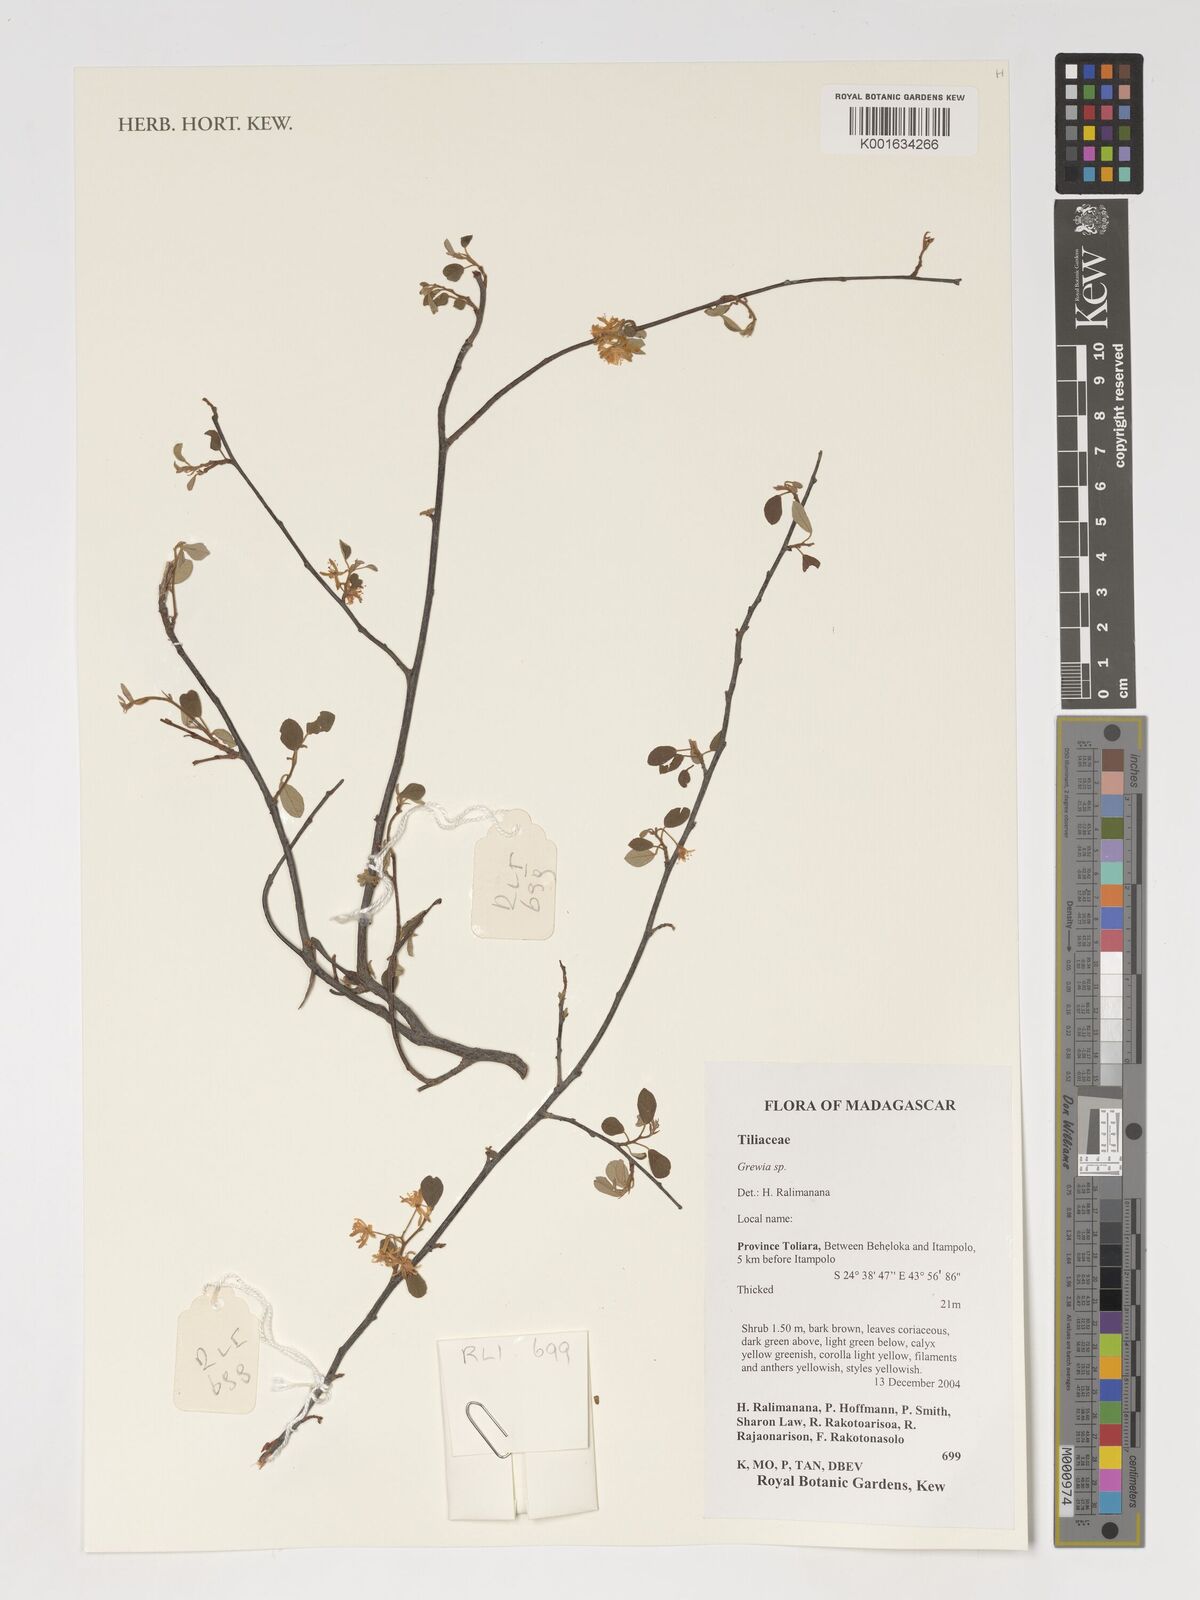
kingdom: Plantae
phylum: Tracheophyta
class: Magnoliopsida
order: Malvales
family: Malvaceae
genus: Grewia
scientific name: Grewia
